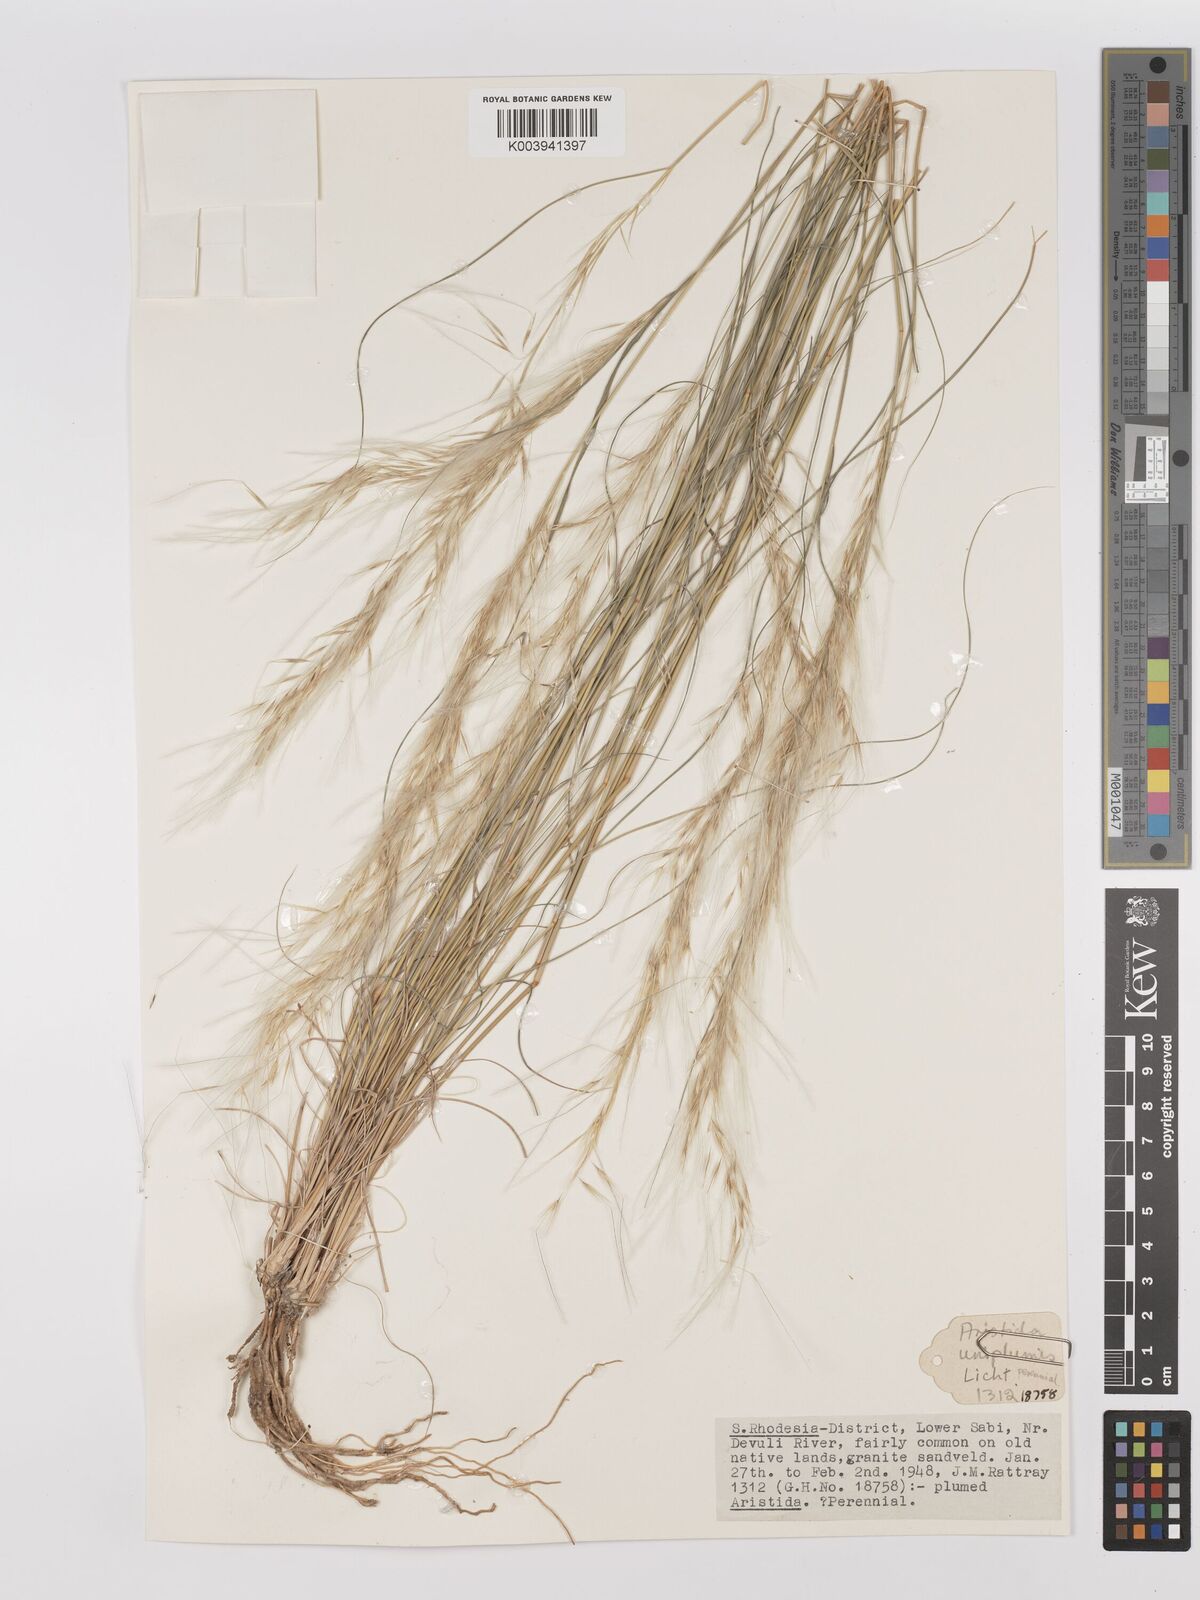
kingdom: Plantae
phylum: Tracheophyta
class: Liliopsida
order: Poales
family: Poaceae
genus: Stipagrostis
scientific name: Stipagrostis uniplumis
